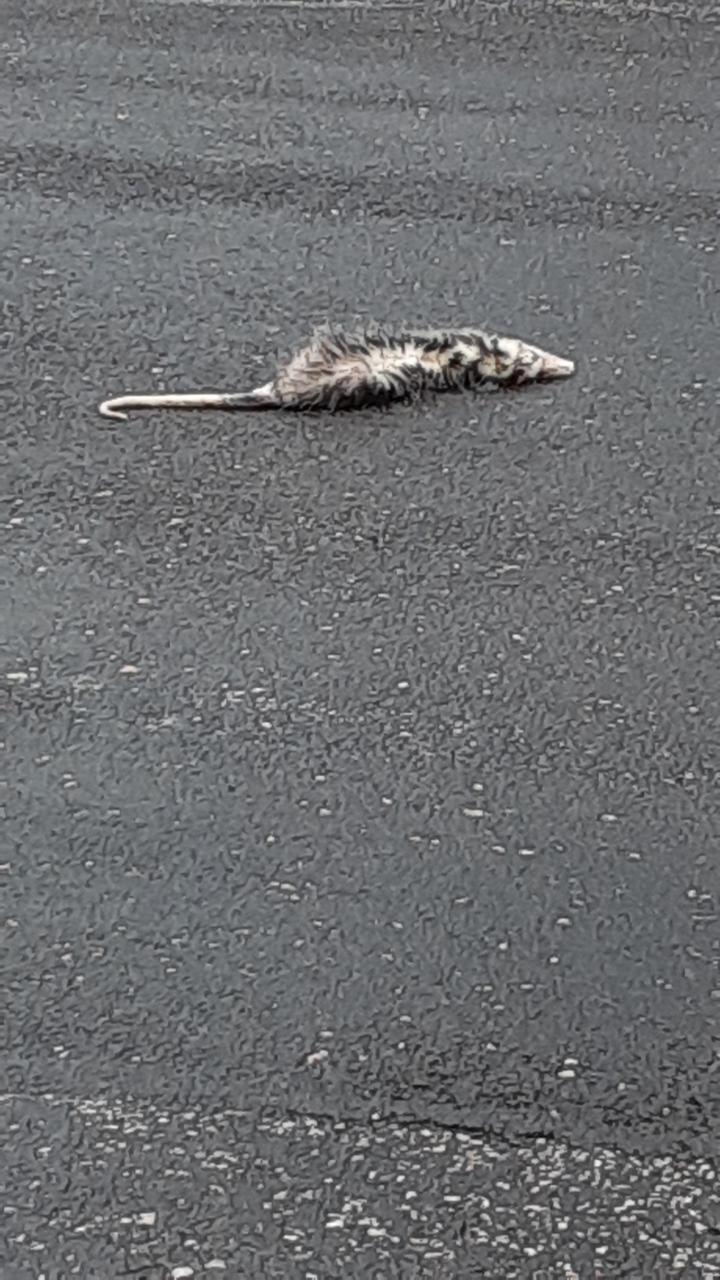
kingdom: Animalia
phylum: Chordata
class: Mammalia
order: Didelphimorphia
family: Didelphidae
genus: Didelphis
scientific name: Didelphis virginiana
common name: Virginia opossum
